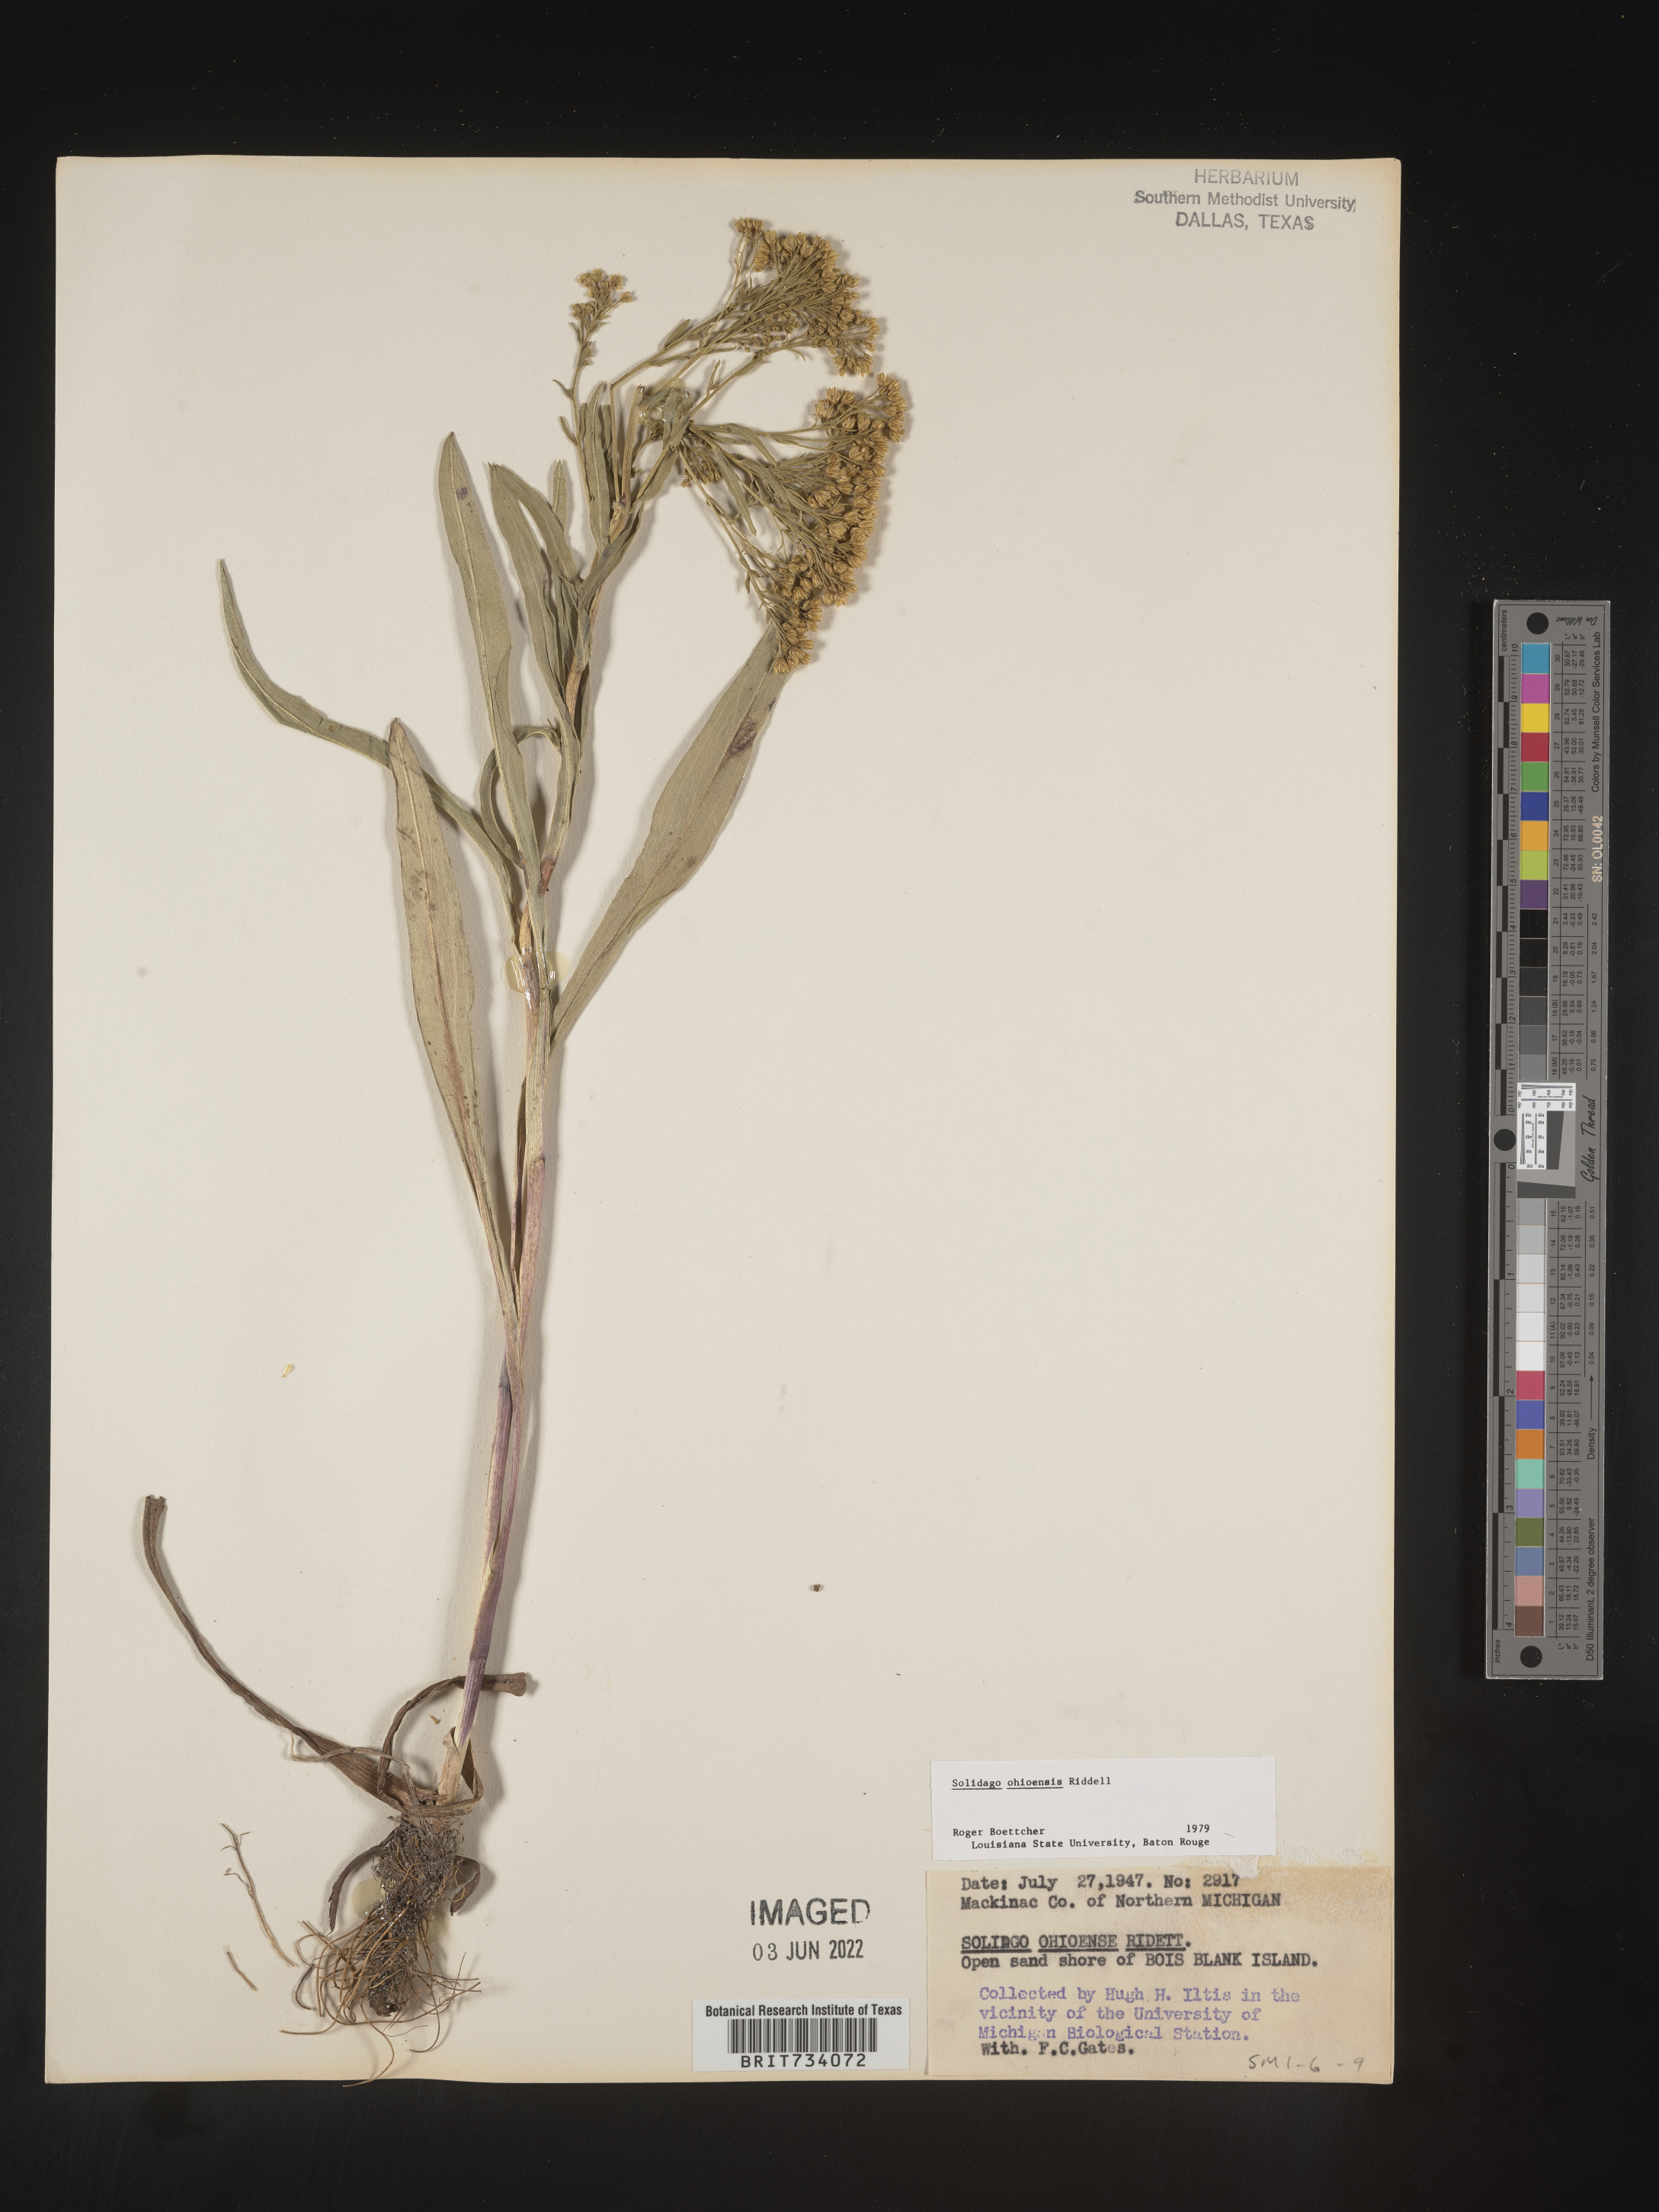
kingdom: Plantae
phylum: Tracheophyta
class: Magnoliopsida
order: Asterales
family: Asteraceae
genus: Solidago
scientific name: Solidago ohioensis
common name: Ohio goldenrod
